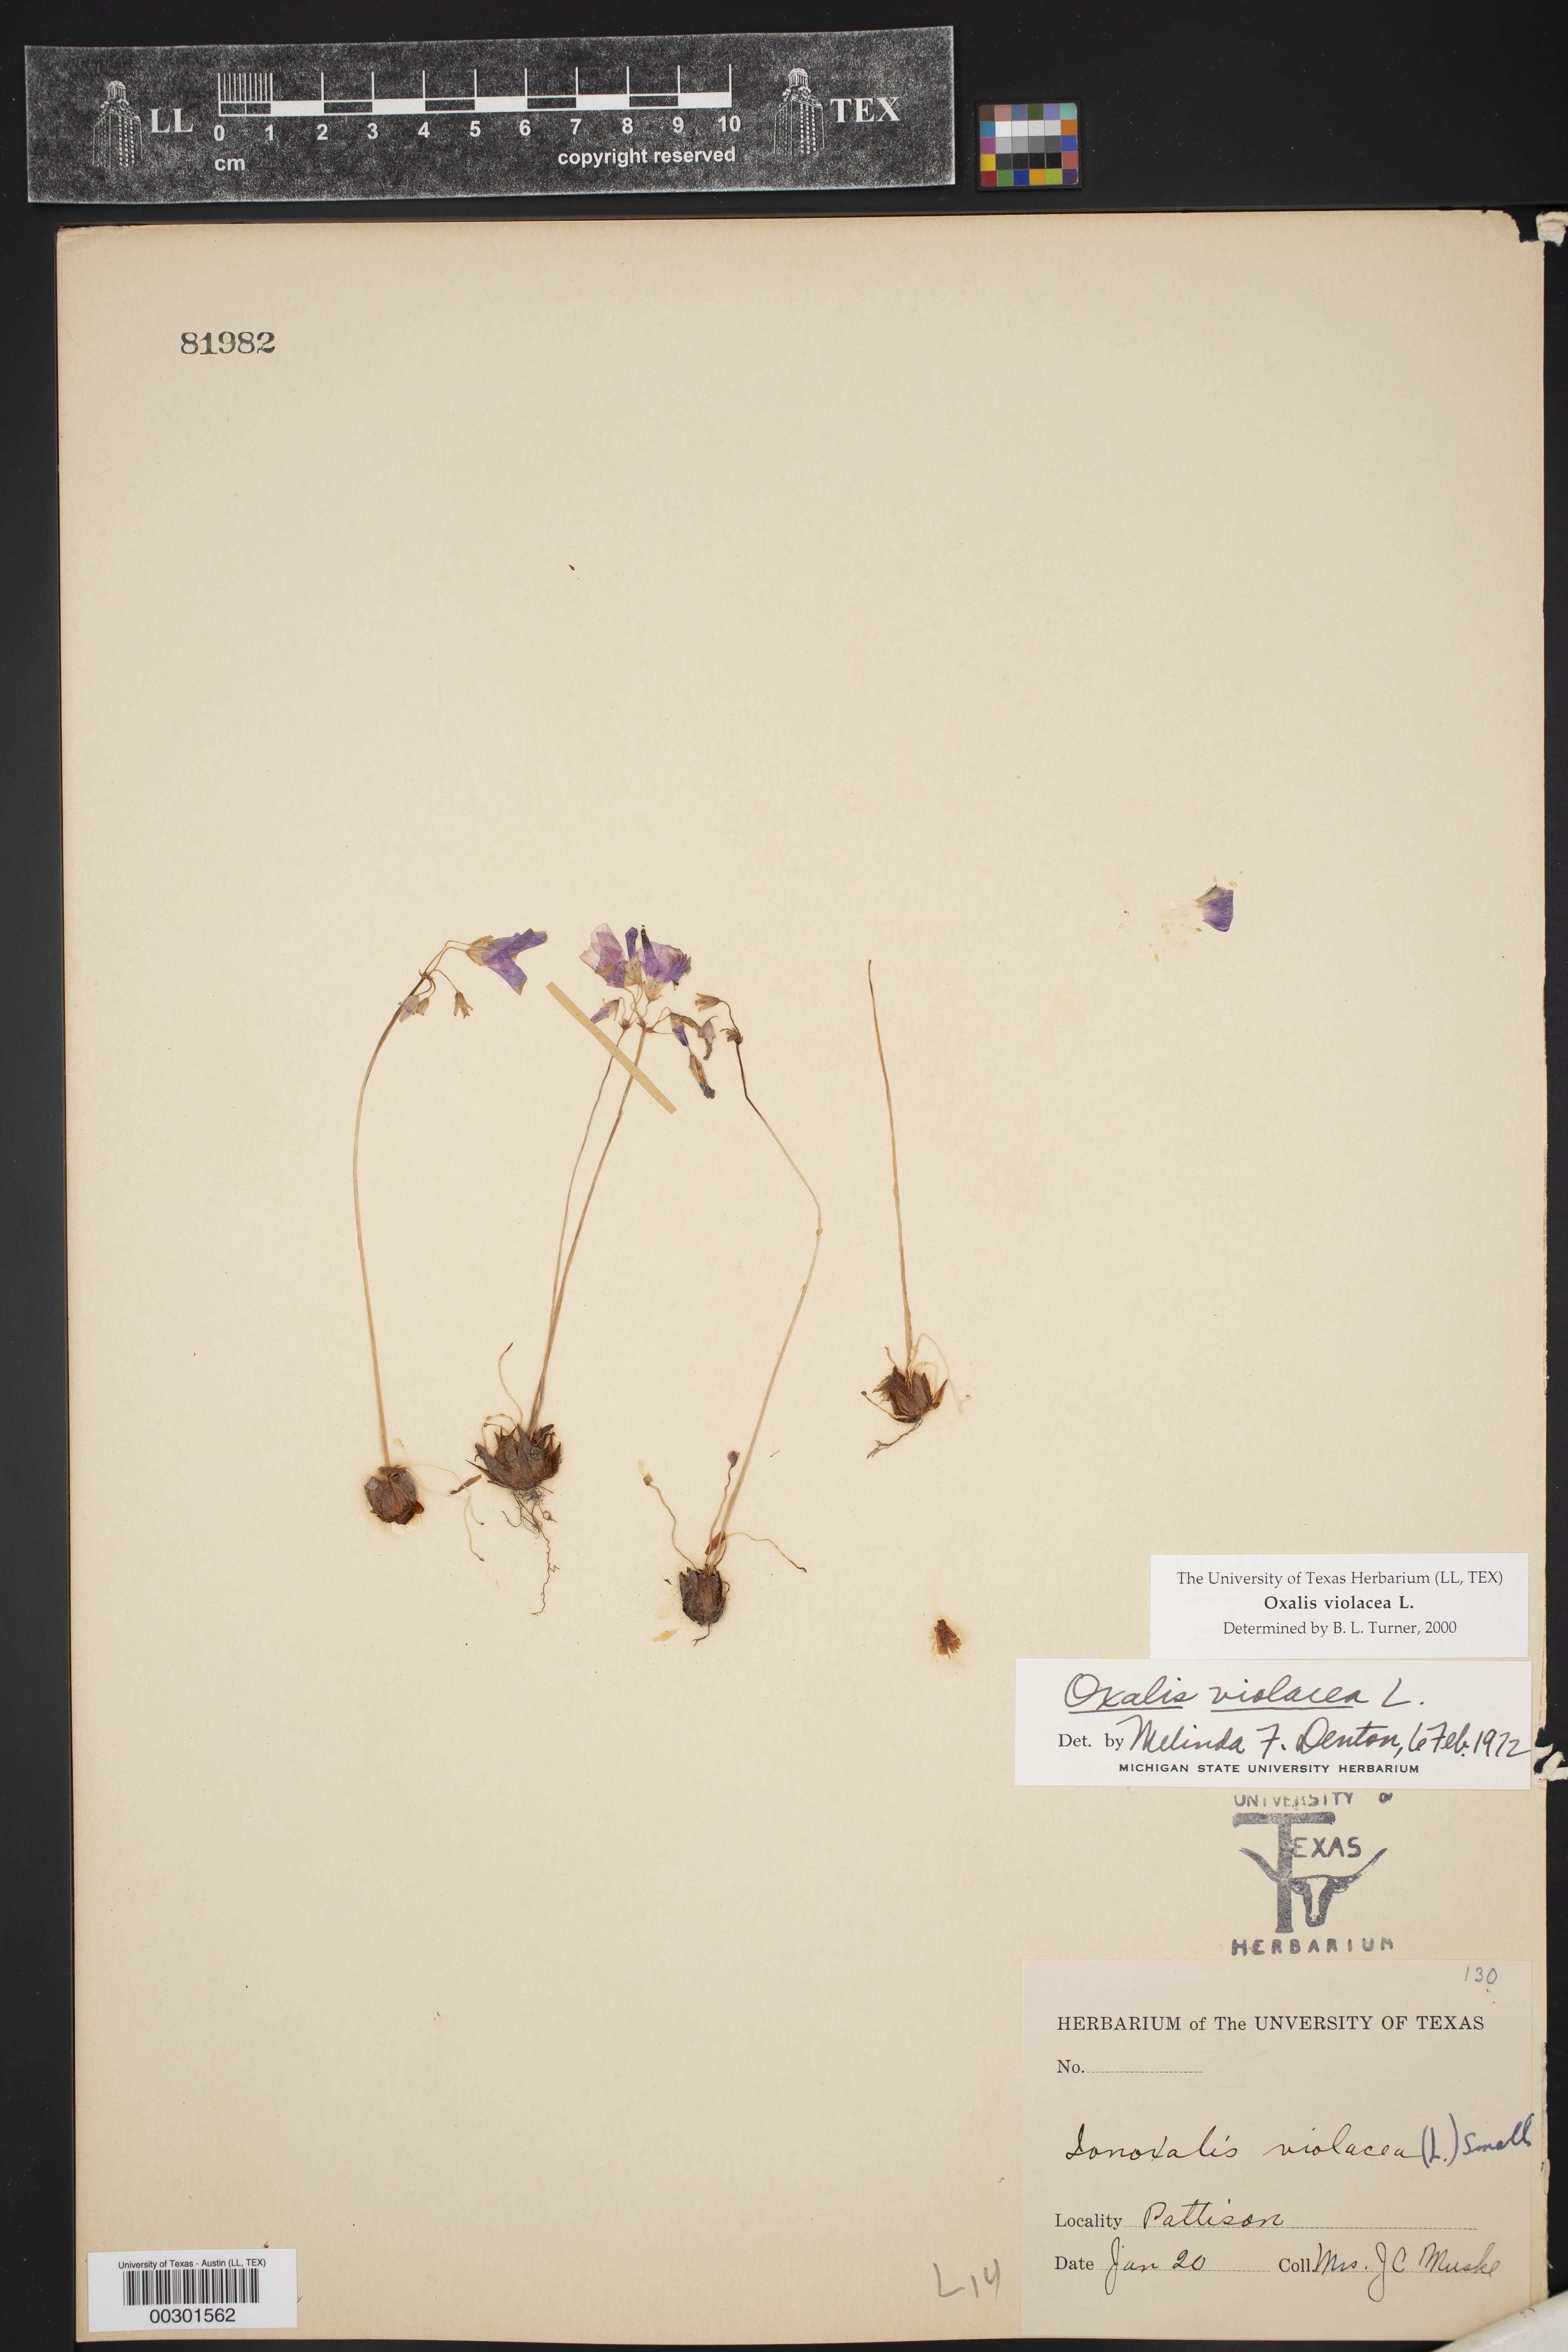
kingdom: Plantae
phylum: Tracheophyta
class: Magnoliopsida
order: Oxalidales
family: Oxalidaceae
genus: Oxalis
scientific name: Oxalis violacea
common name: Violet wood-sorrel
